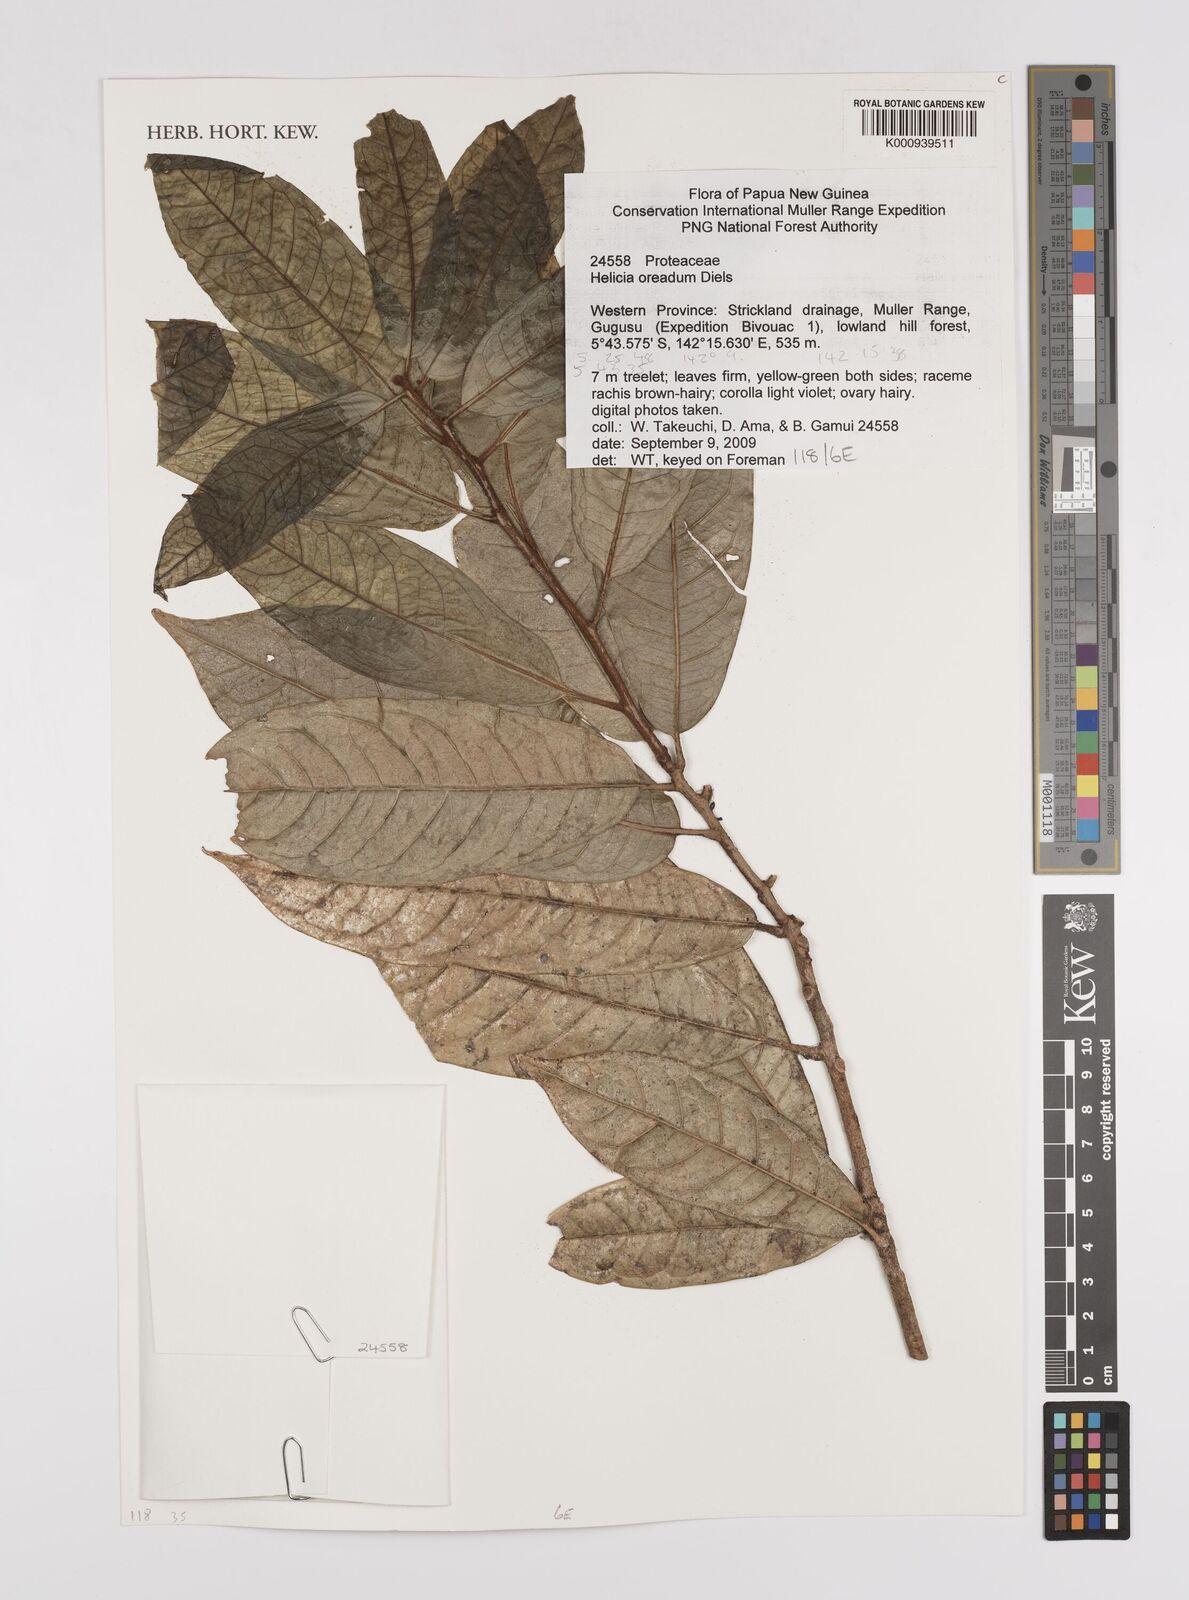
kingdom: Plantae
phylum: Tracheophyta
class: Magnoliopsida
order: Proteales
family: Proteaceae
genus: Helicia
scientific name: Helicia oreadum
